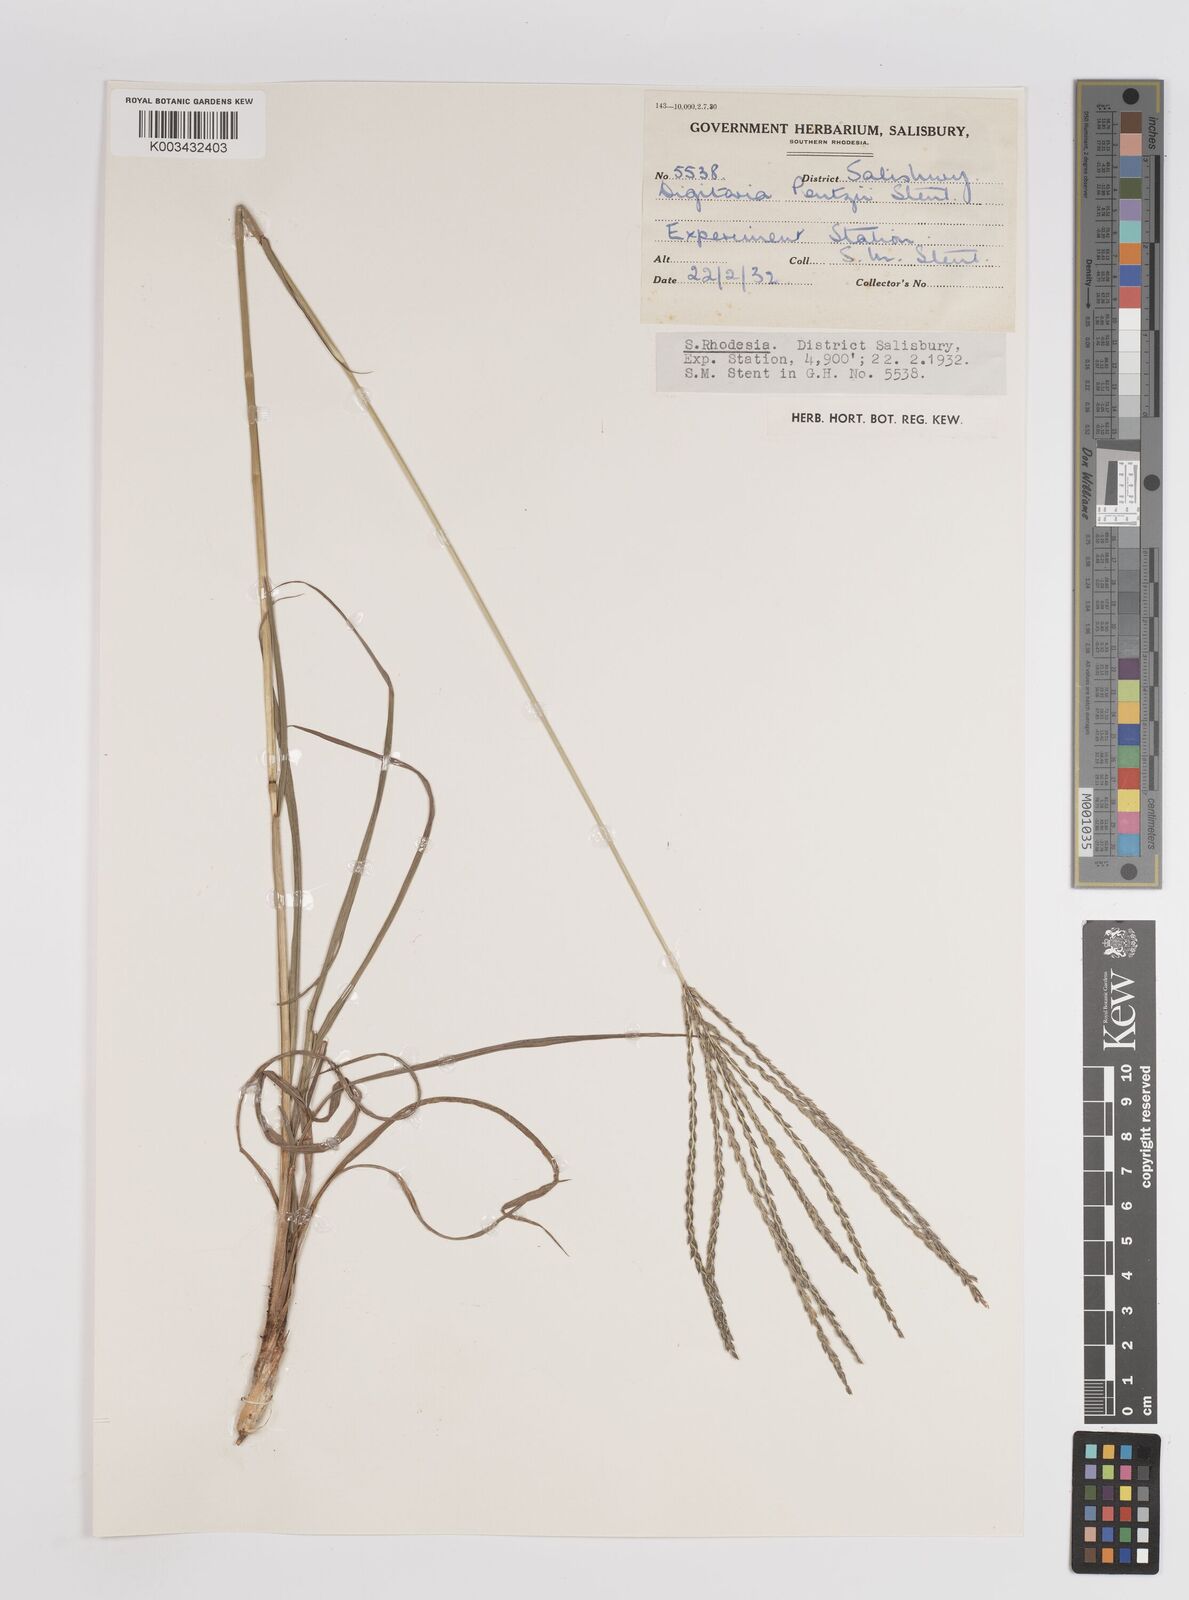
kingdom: Plantae
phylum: Tracheophyta
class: Liliopsida
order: Poales
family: Poaceae
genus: Digitaria
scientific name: Digitaria eriantha
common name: Digitgrass
